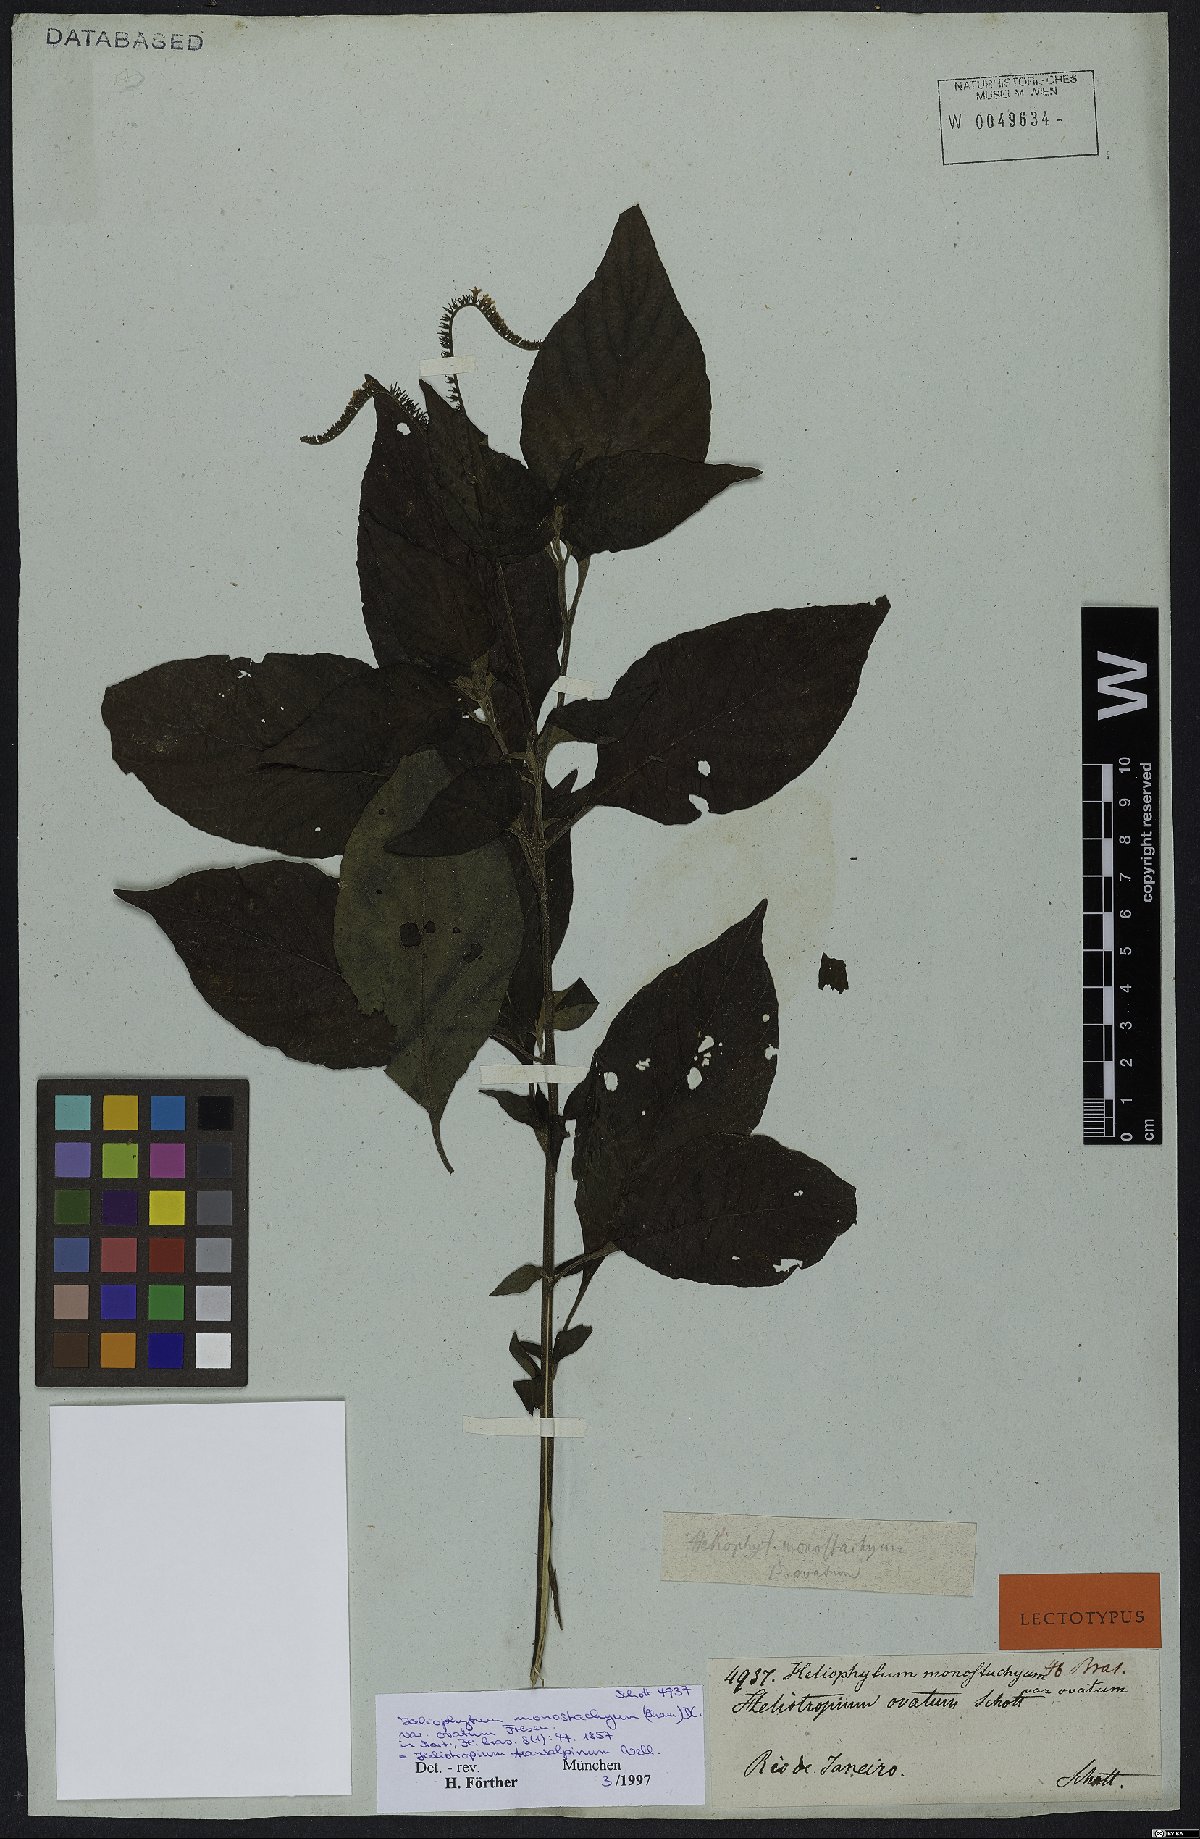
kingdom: Plantae
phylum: Tracheophyta
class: Magnoliopsida
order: Boraginales
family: Heliotropiaceae
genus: Heliotropium
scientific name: Heliotropium transalpinum
